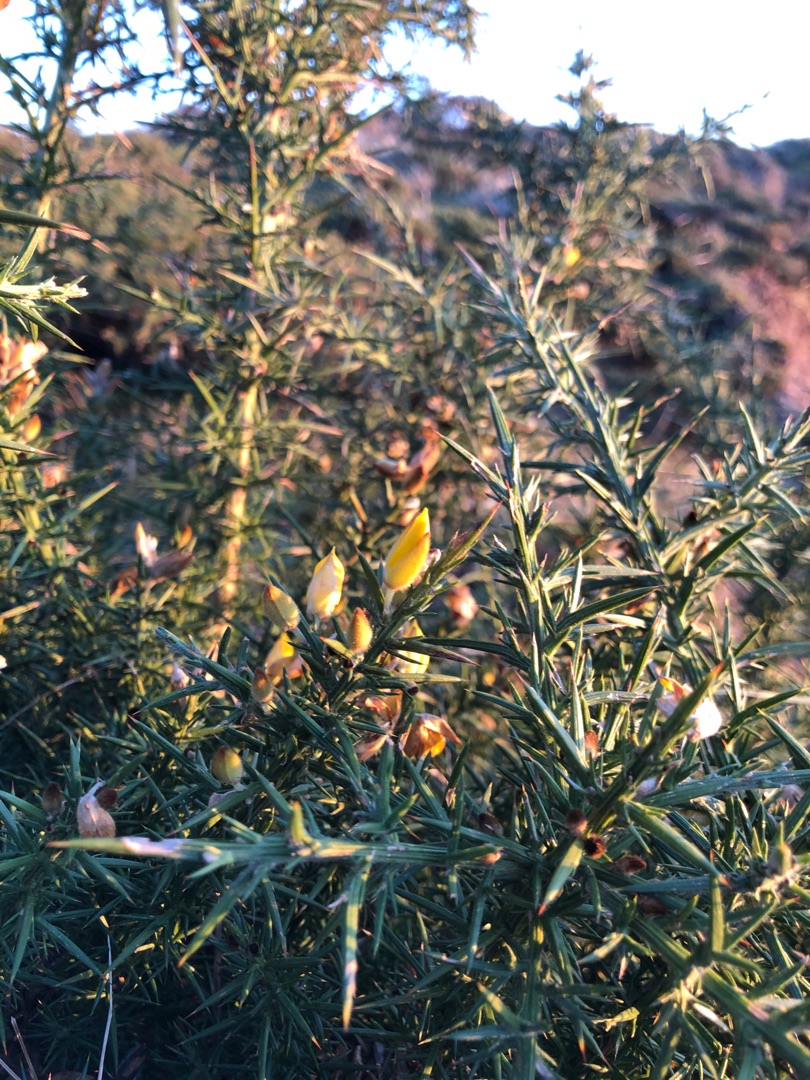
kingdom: Plantae
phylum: Tracheophyta
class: Magnoliopsida
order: Fabales
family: Fabaceae
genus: Ulex
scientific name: Ulex europaeus
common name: Tornblad
